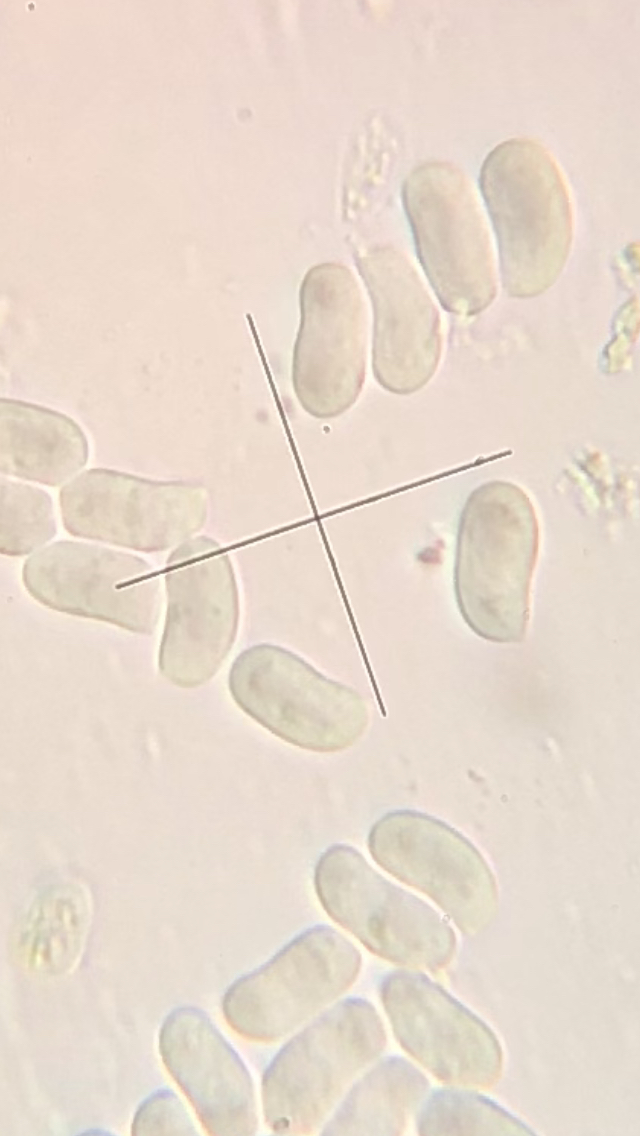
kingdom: Fungi
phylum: Basidiomycota
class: Agaricomycetes
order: Russulales
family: Peniophoraceae
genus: Peniophora
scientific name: Peniophora incarnata
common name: laksefarvet voksskind
